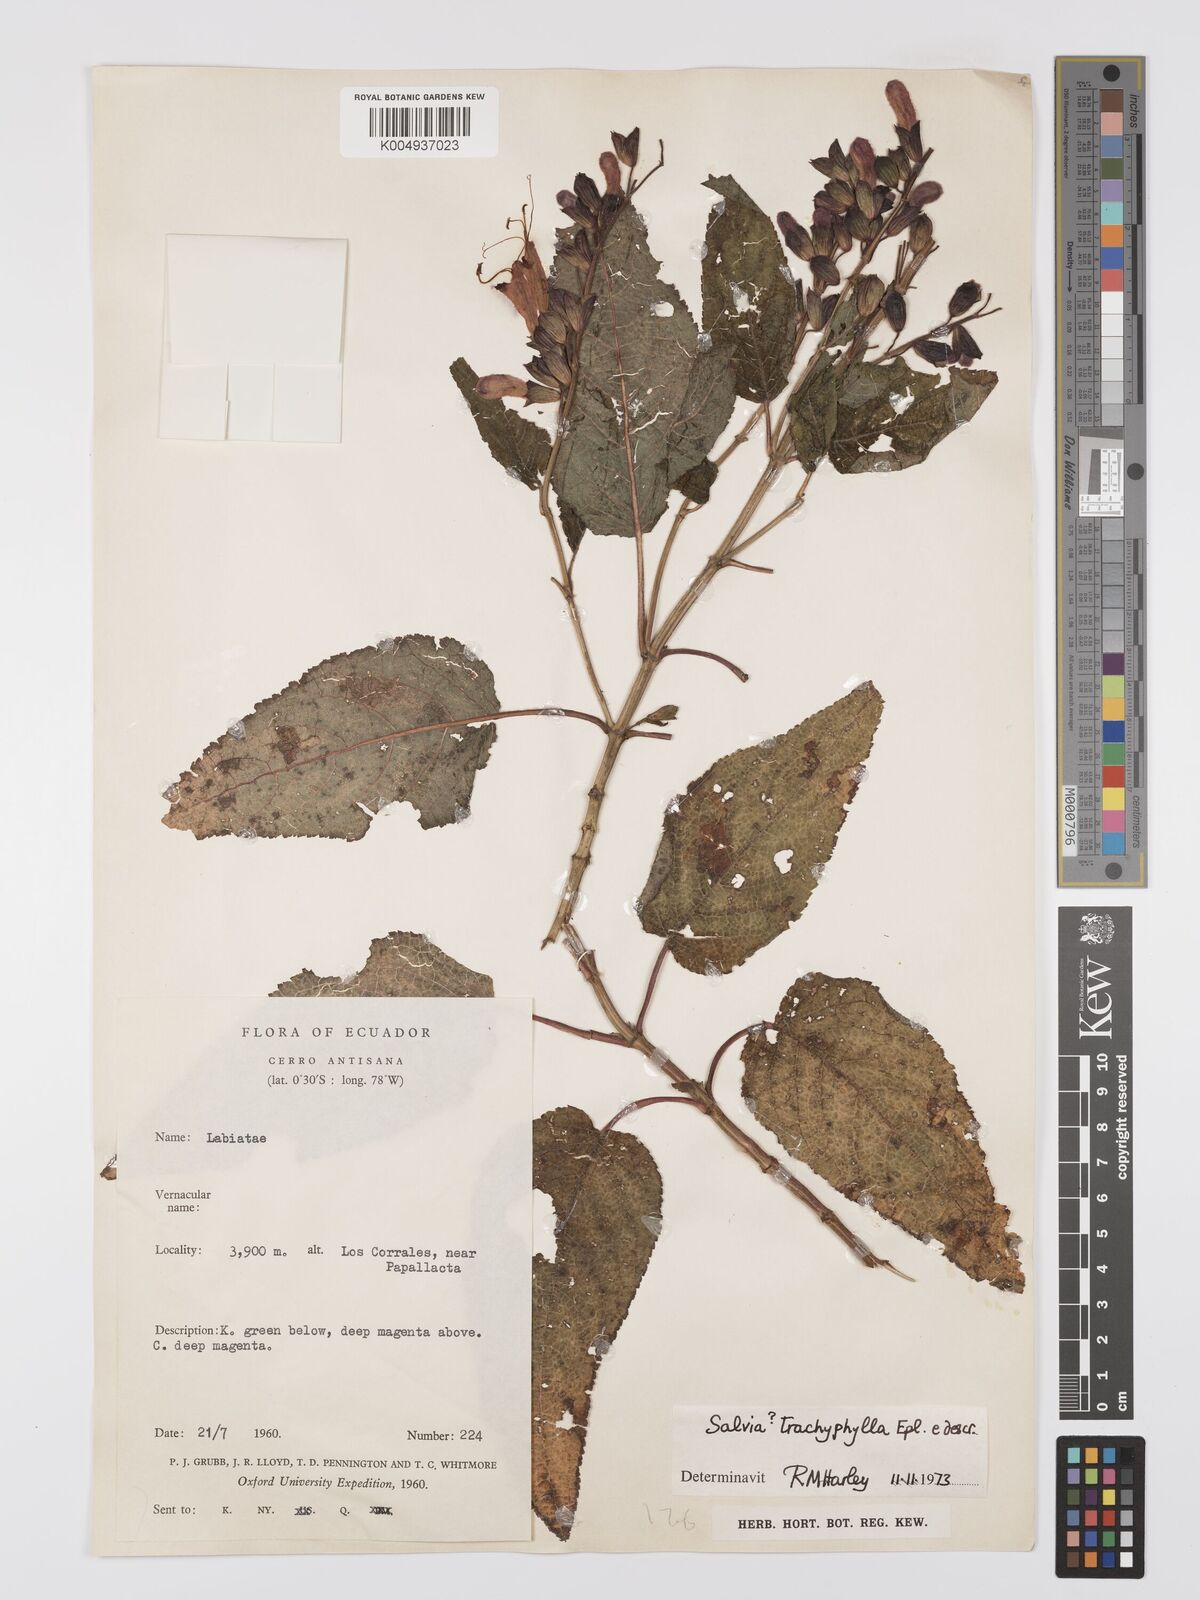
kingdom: Plantae
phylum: Tracheophyta
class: Magnoliopsida
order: Lamiales
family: Lamiaceae
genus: Salvia
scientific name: Salvia trachyphylla
